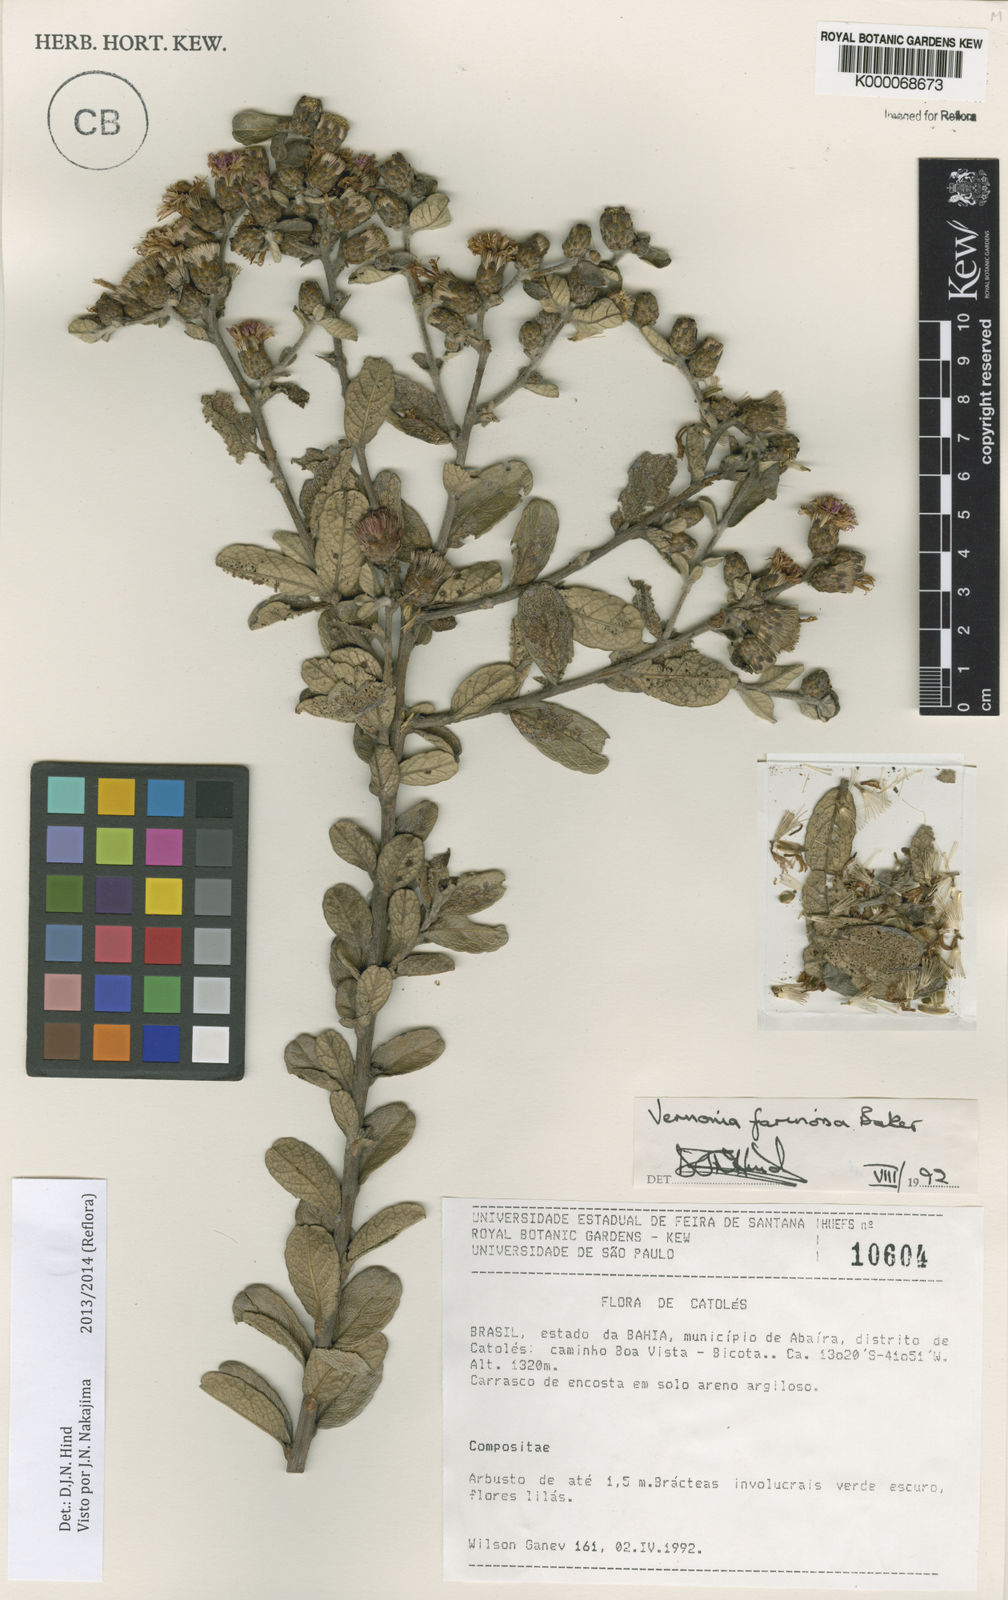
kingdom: Plantae
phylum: Tracheophyta
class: Magnoliopsida
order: Asterales
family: Asteraceae
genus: Lessingianthus
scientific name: Lessingianthus farinosus
